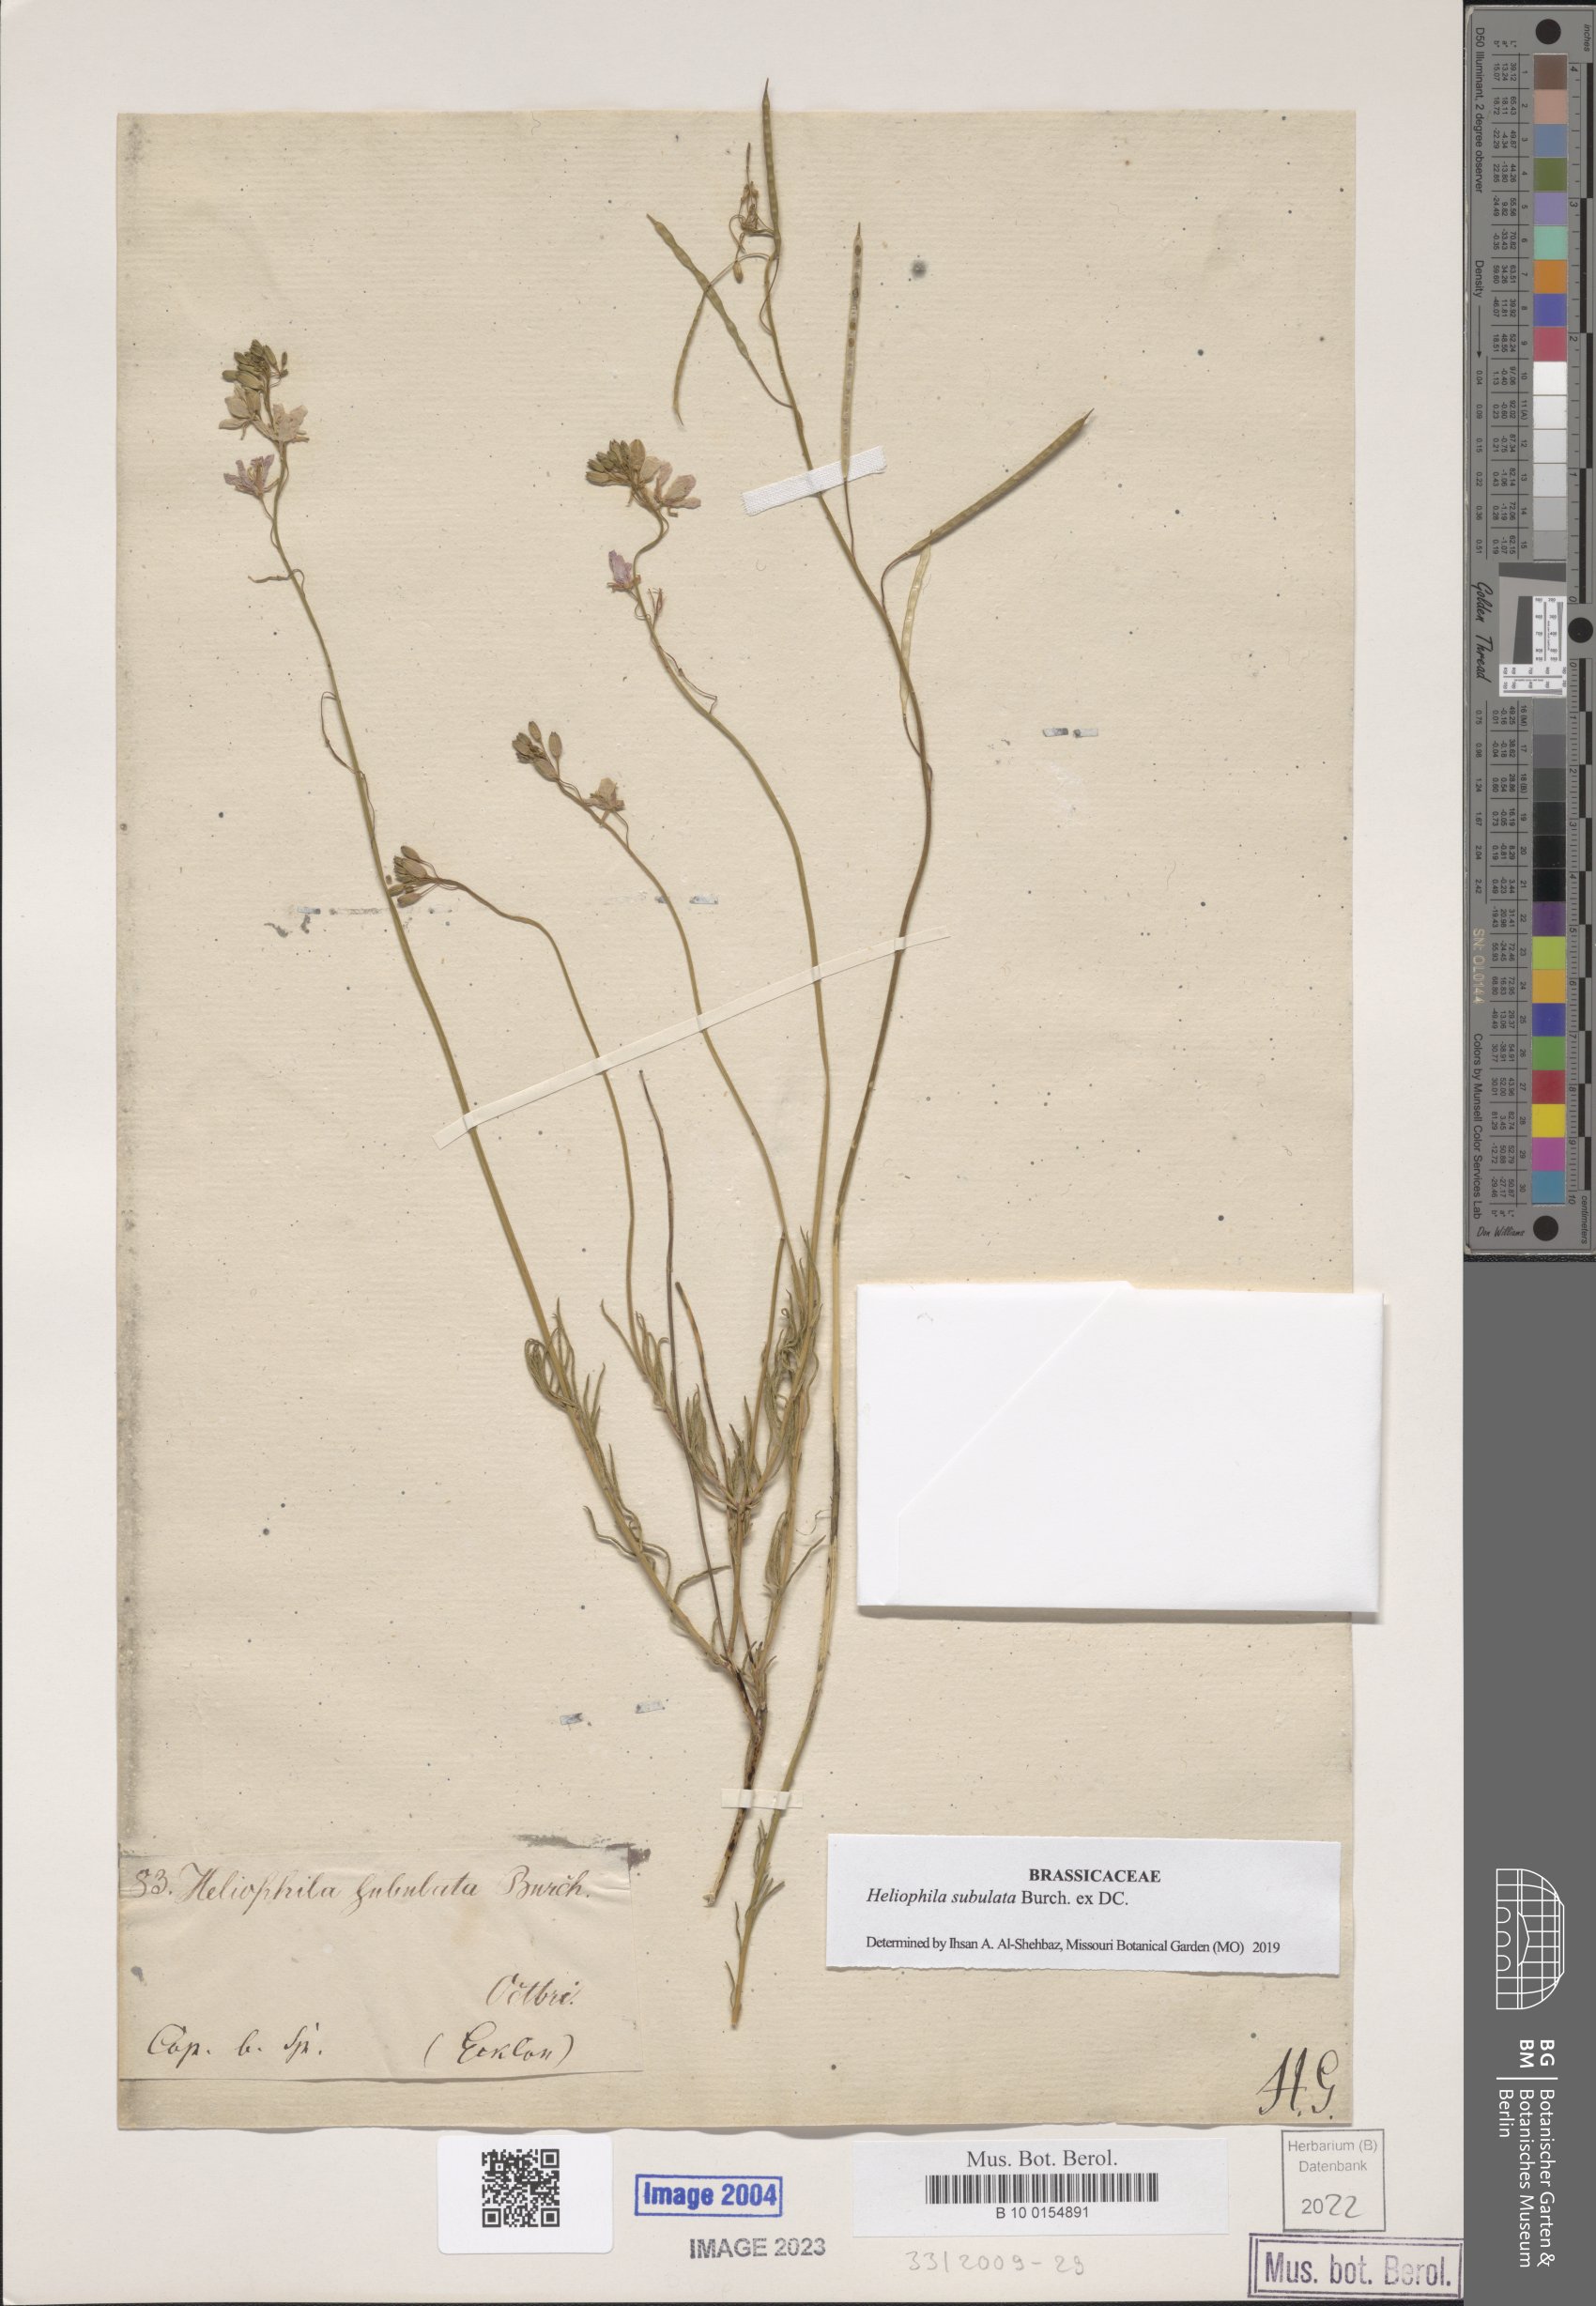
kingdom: Plantae
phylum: Tracheophyta
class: Magnoliopsida
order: Brassicales
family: Brassicaceae
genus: Heliophila
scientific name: Heliophila subulata
